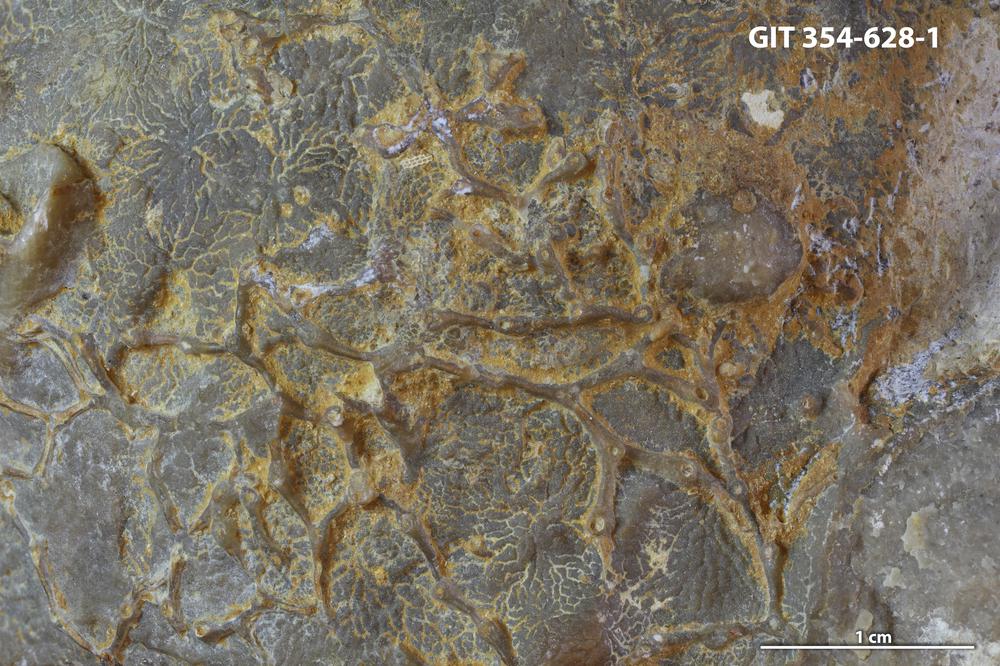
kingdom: Animalia
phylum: Cnidaria
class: Anthozoa
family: Auloporidae
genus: Aulopora
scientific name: Aulopora
